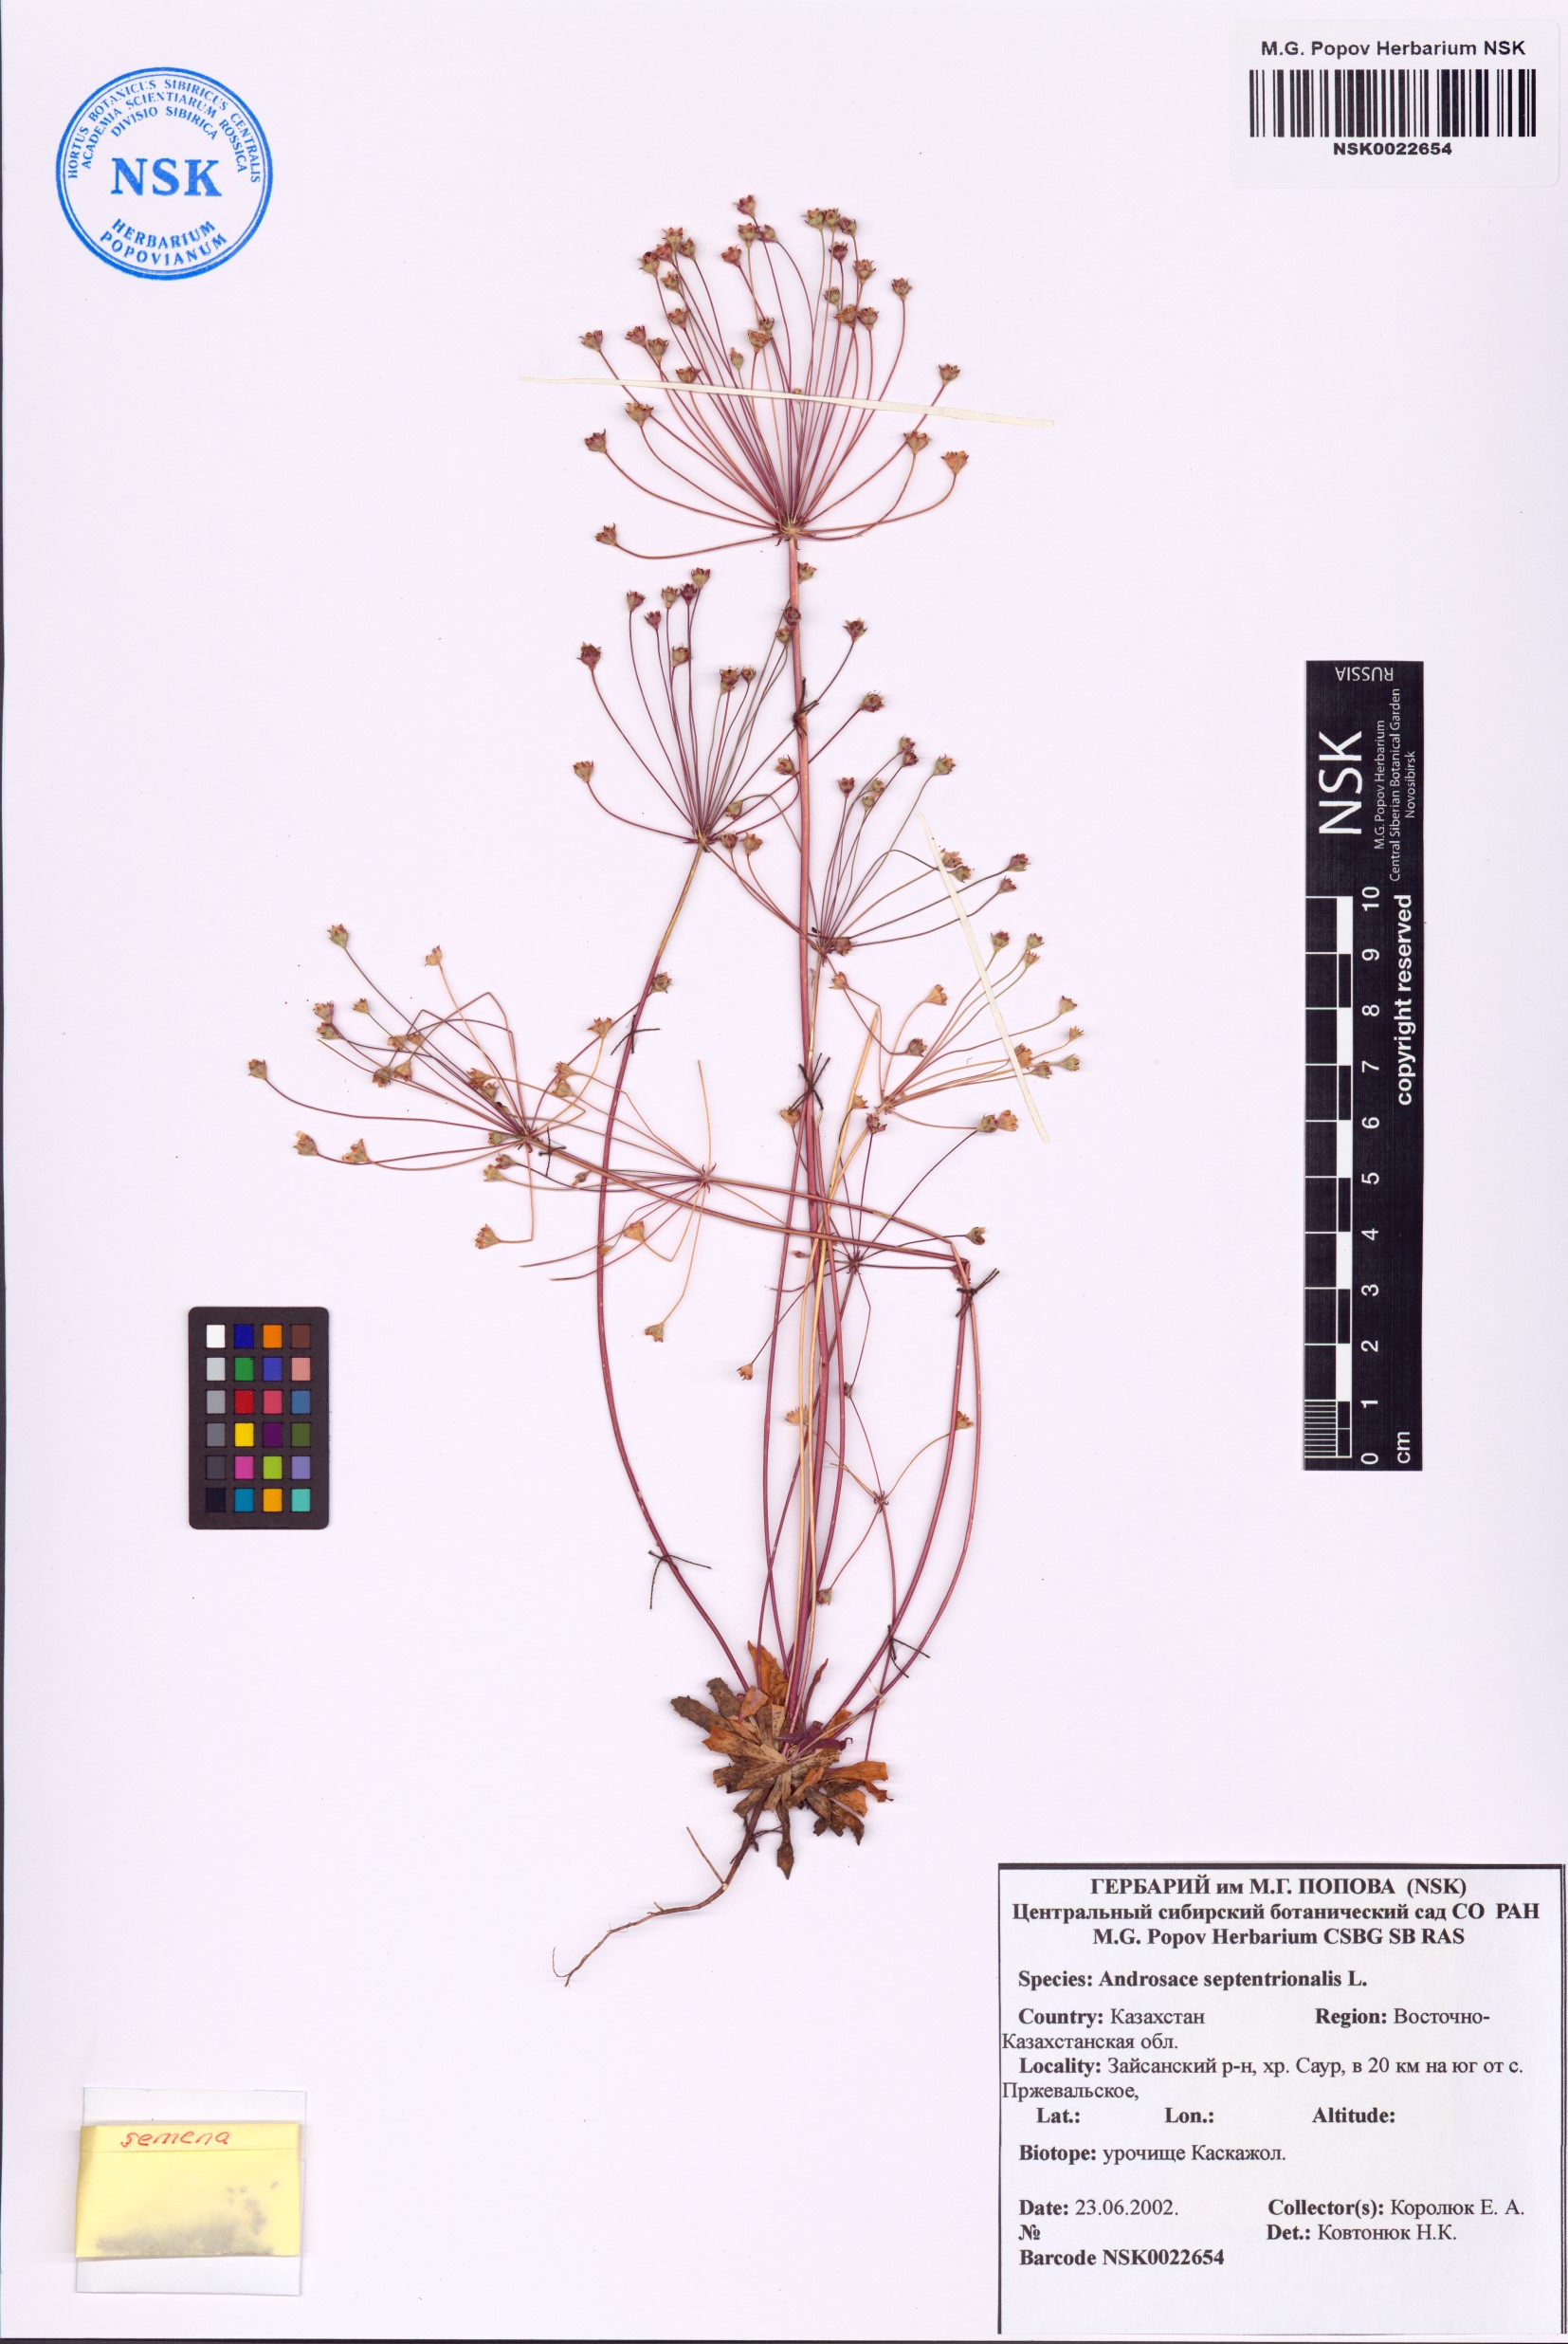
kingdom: Plantae
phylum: Tracheophyta
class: Magnoliopsida
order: Ericales
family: Primulaceae
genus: Androsace
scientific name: Androsace septentrionalis
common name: Hairy northern fairy-candelabra
